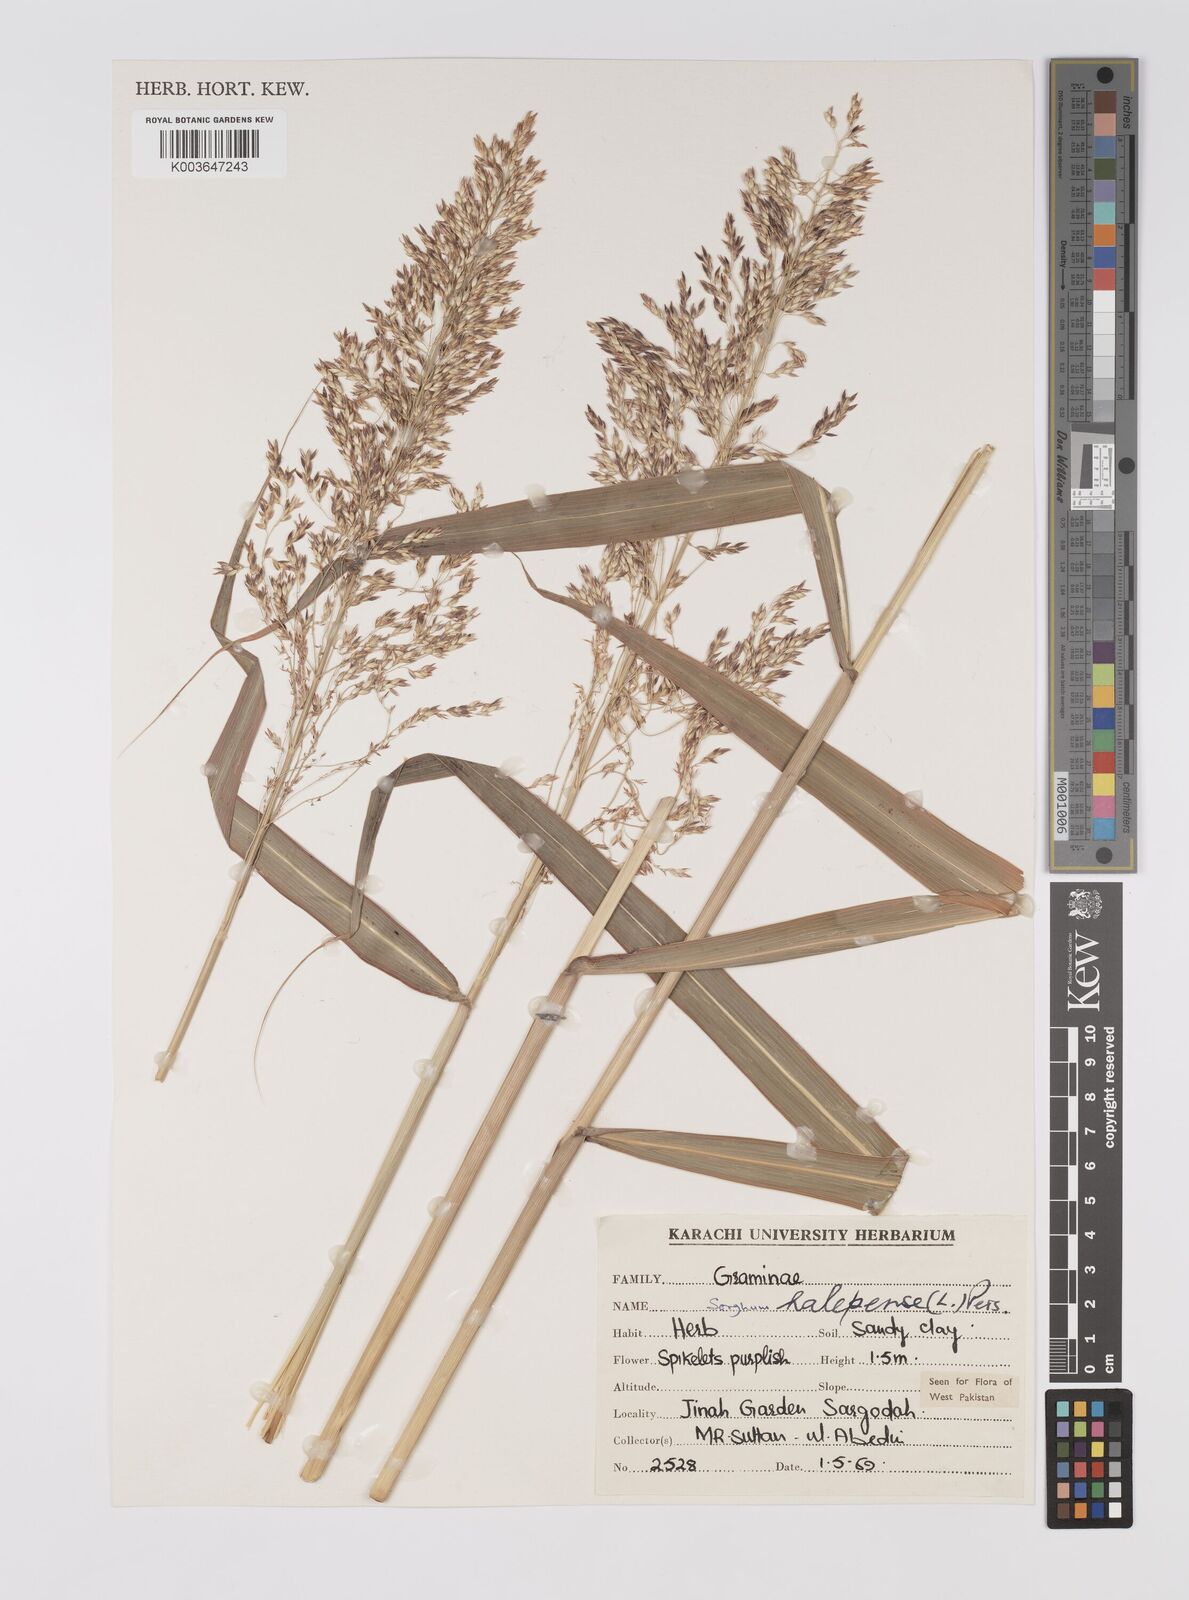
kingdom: Plantae
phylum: Tracheophyta
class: Liliopsida
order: Poales
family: Poaceae
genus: Sorghum
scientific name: Sorghum halepense
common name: Johnson-grass
